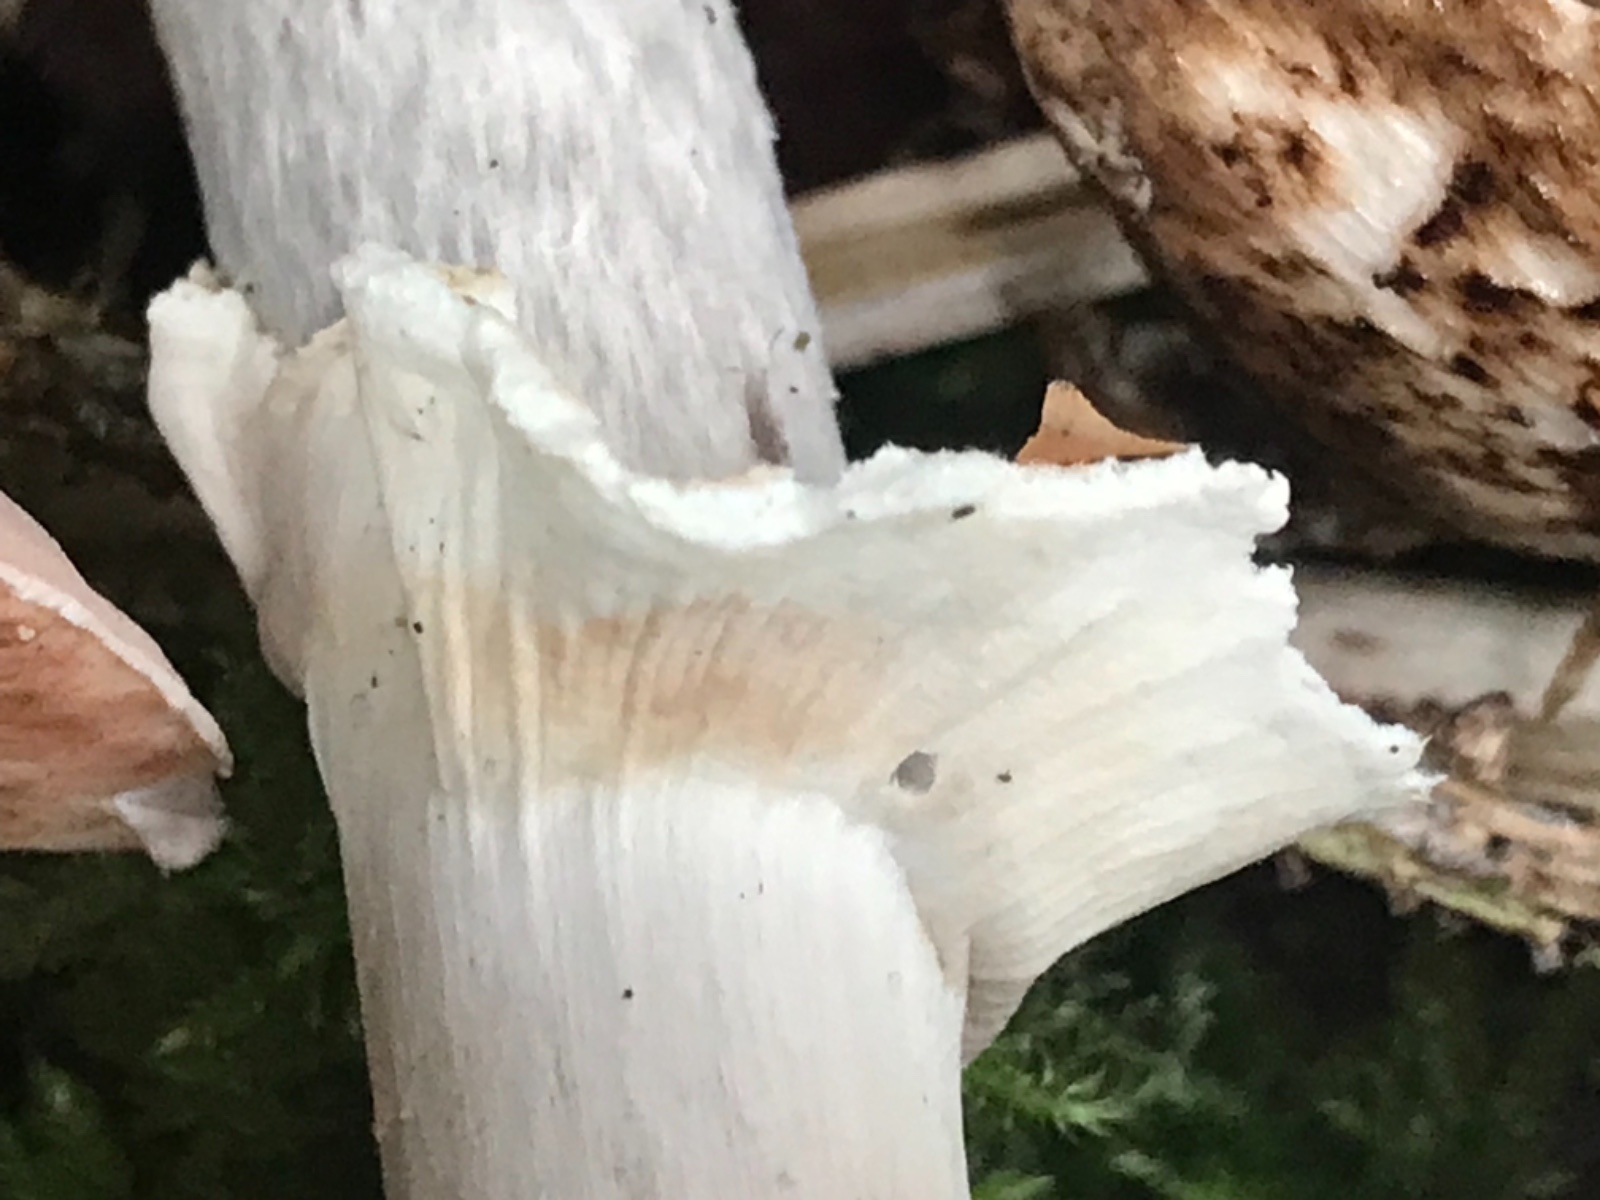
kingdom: Fungi
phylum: Basidiomycota
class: Agaricomycetes
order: Agaricales
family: Agaricaceae
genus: Agaricus
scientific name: Agaricus impudicus
